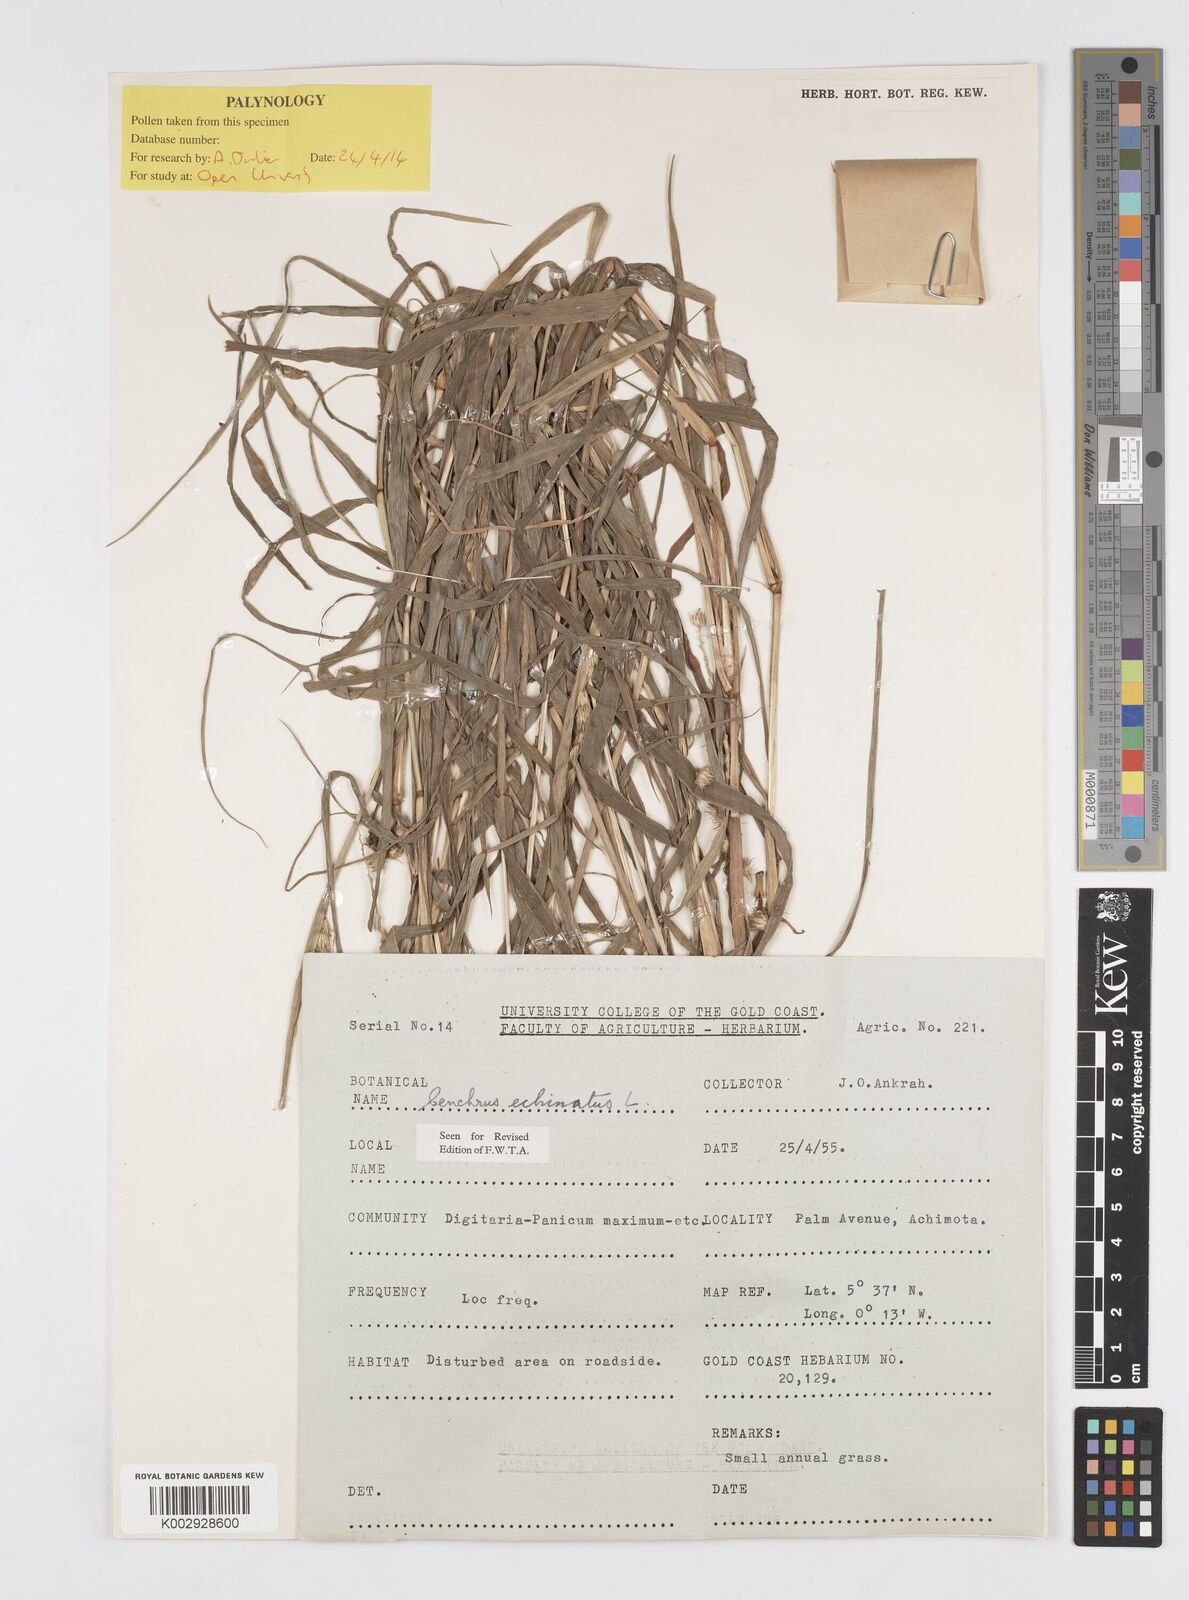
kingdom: Plantae
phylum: Tracheophyta
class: Liliopsida
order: Poales
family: Poaceae
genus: Cenchrus
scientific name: Cenchrus echinatus
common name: Southern sandbur
